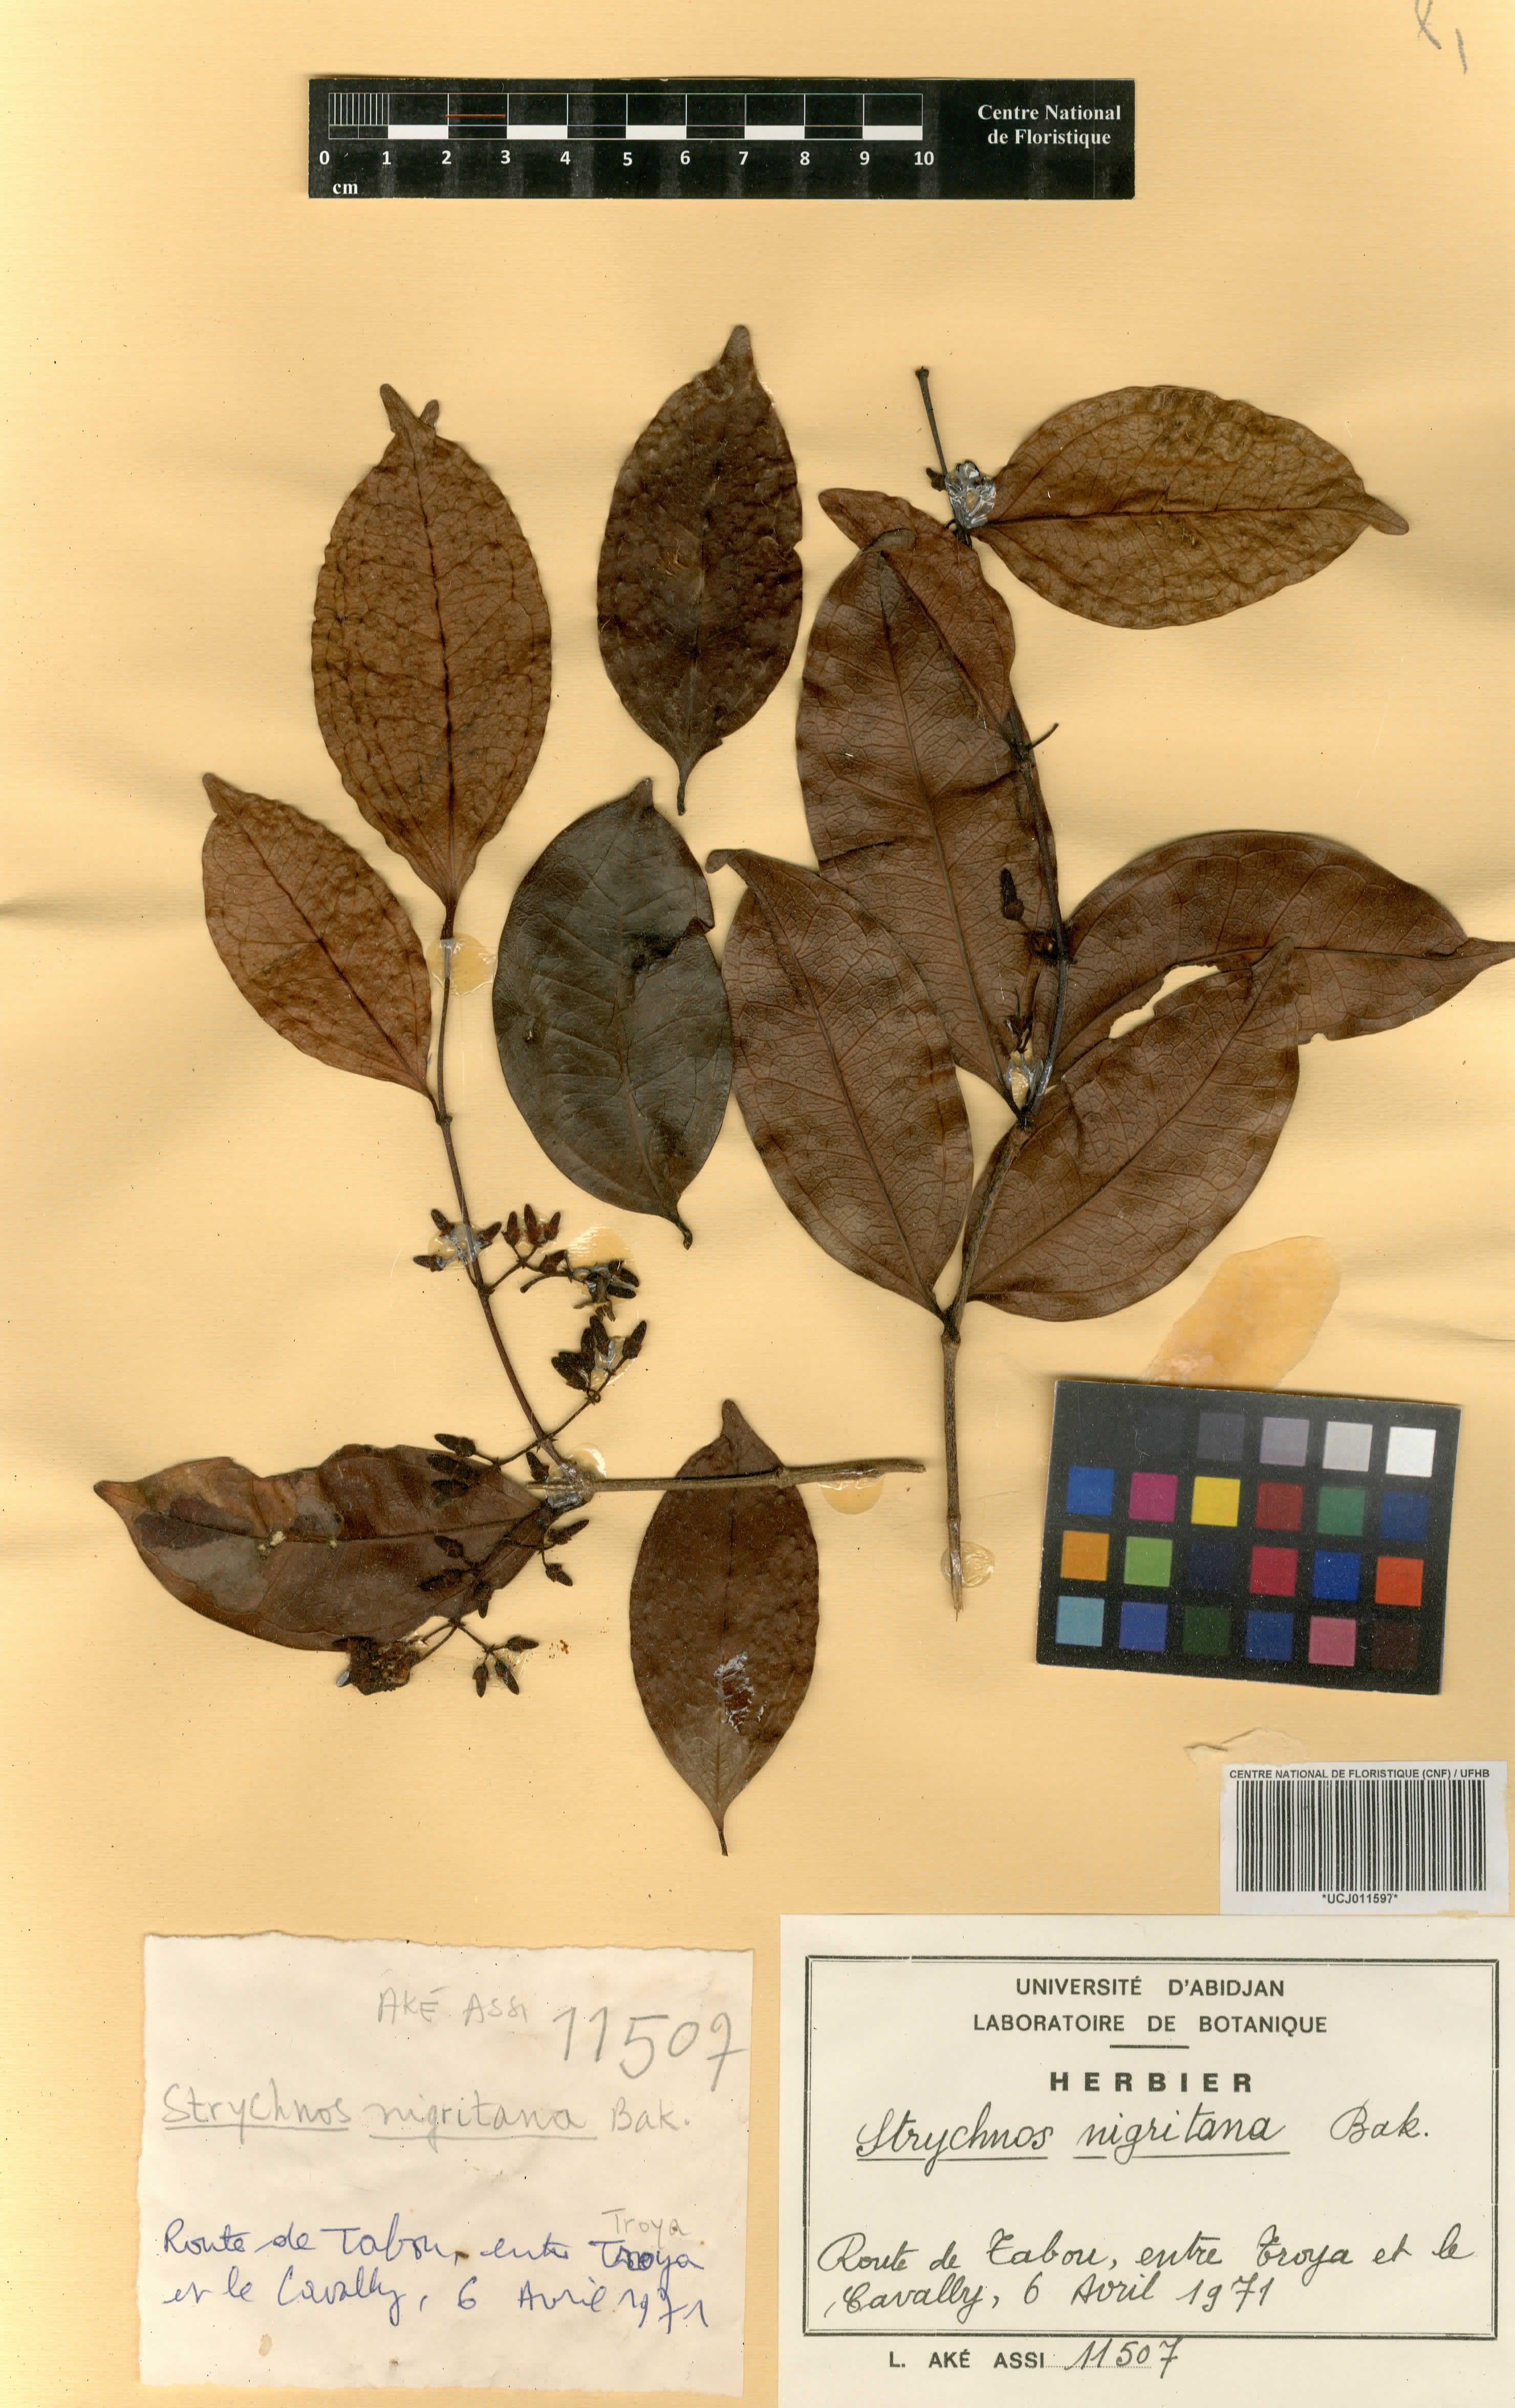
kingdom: Plantae
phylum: Tracheophyta
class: Magnoliopsida
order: Gentianales
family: Loganiaceae
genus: Strychnos
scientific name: Strychnos nigritana
